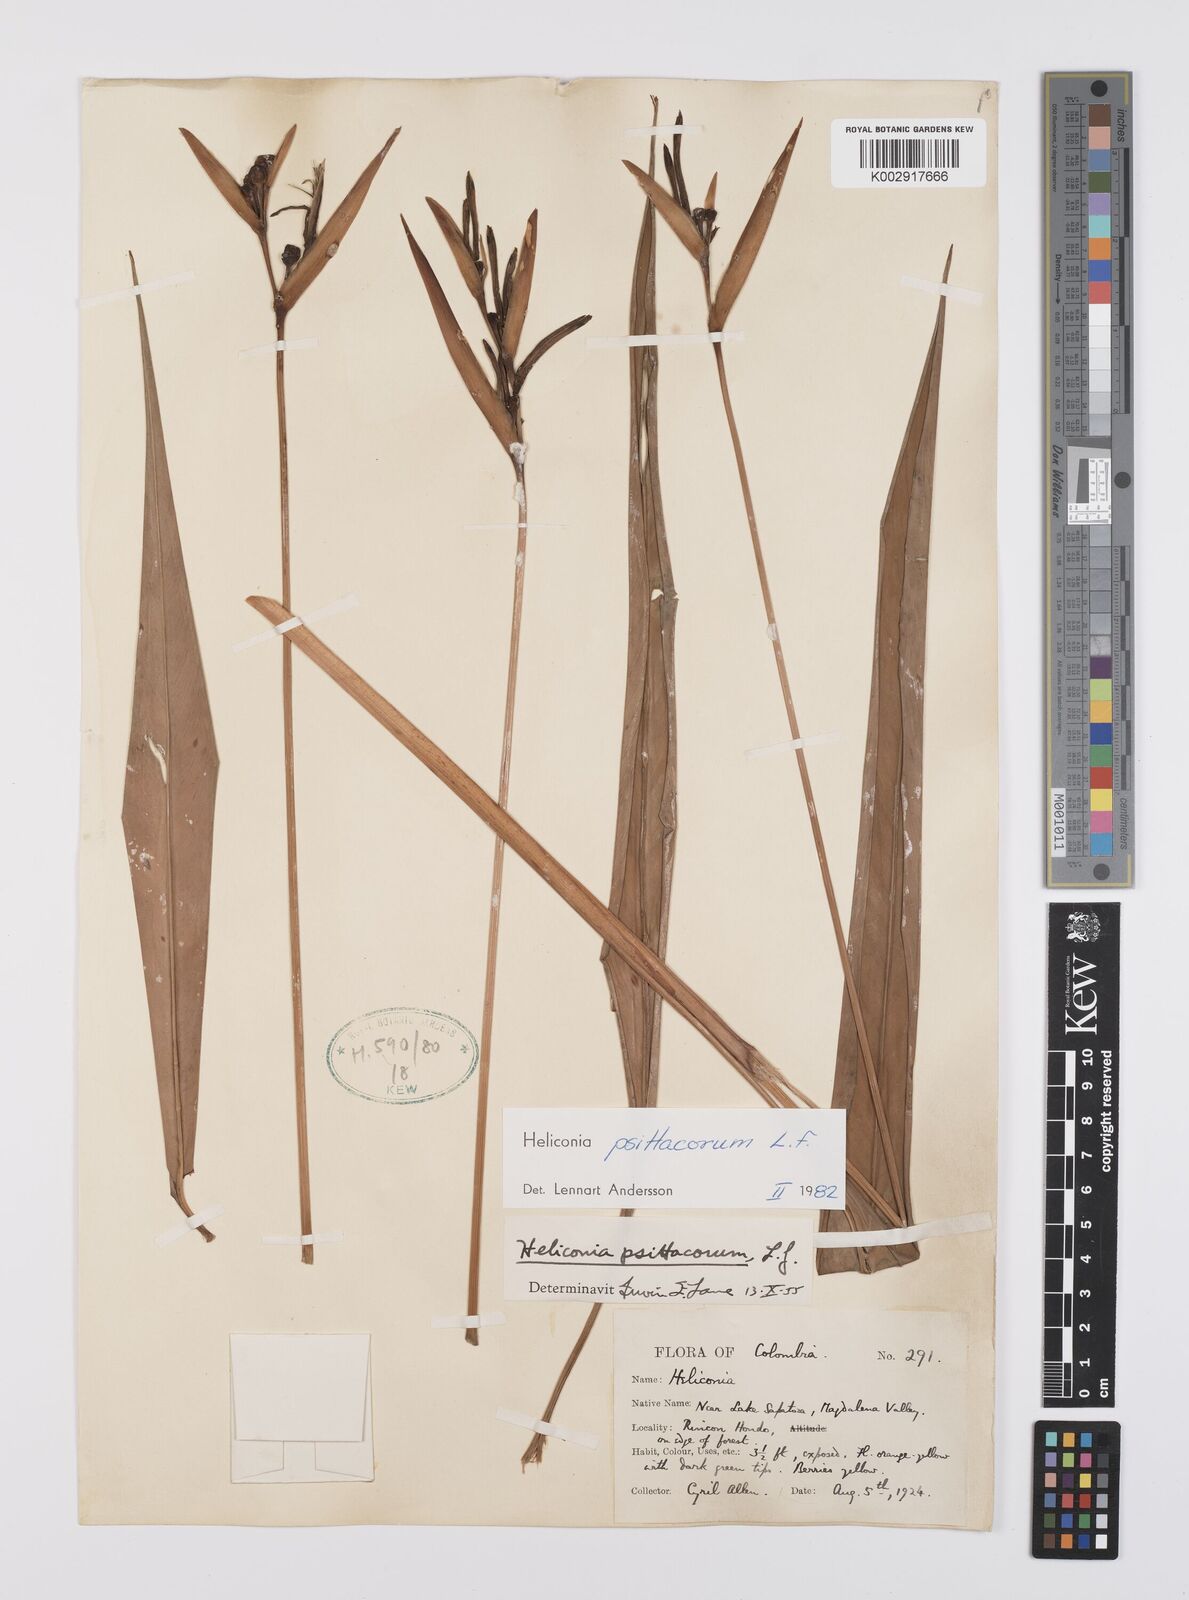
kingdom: Plantae
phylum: Tracheophyta
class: Liliopsida
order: Zingiberales
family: Heliconiaceae
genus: Heliconia
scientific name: Heliconia psittacorum
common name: Parrot's-flower
